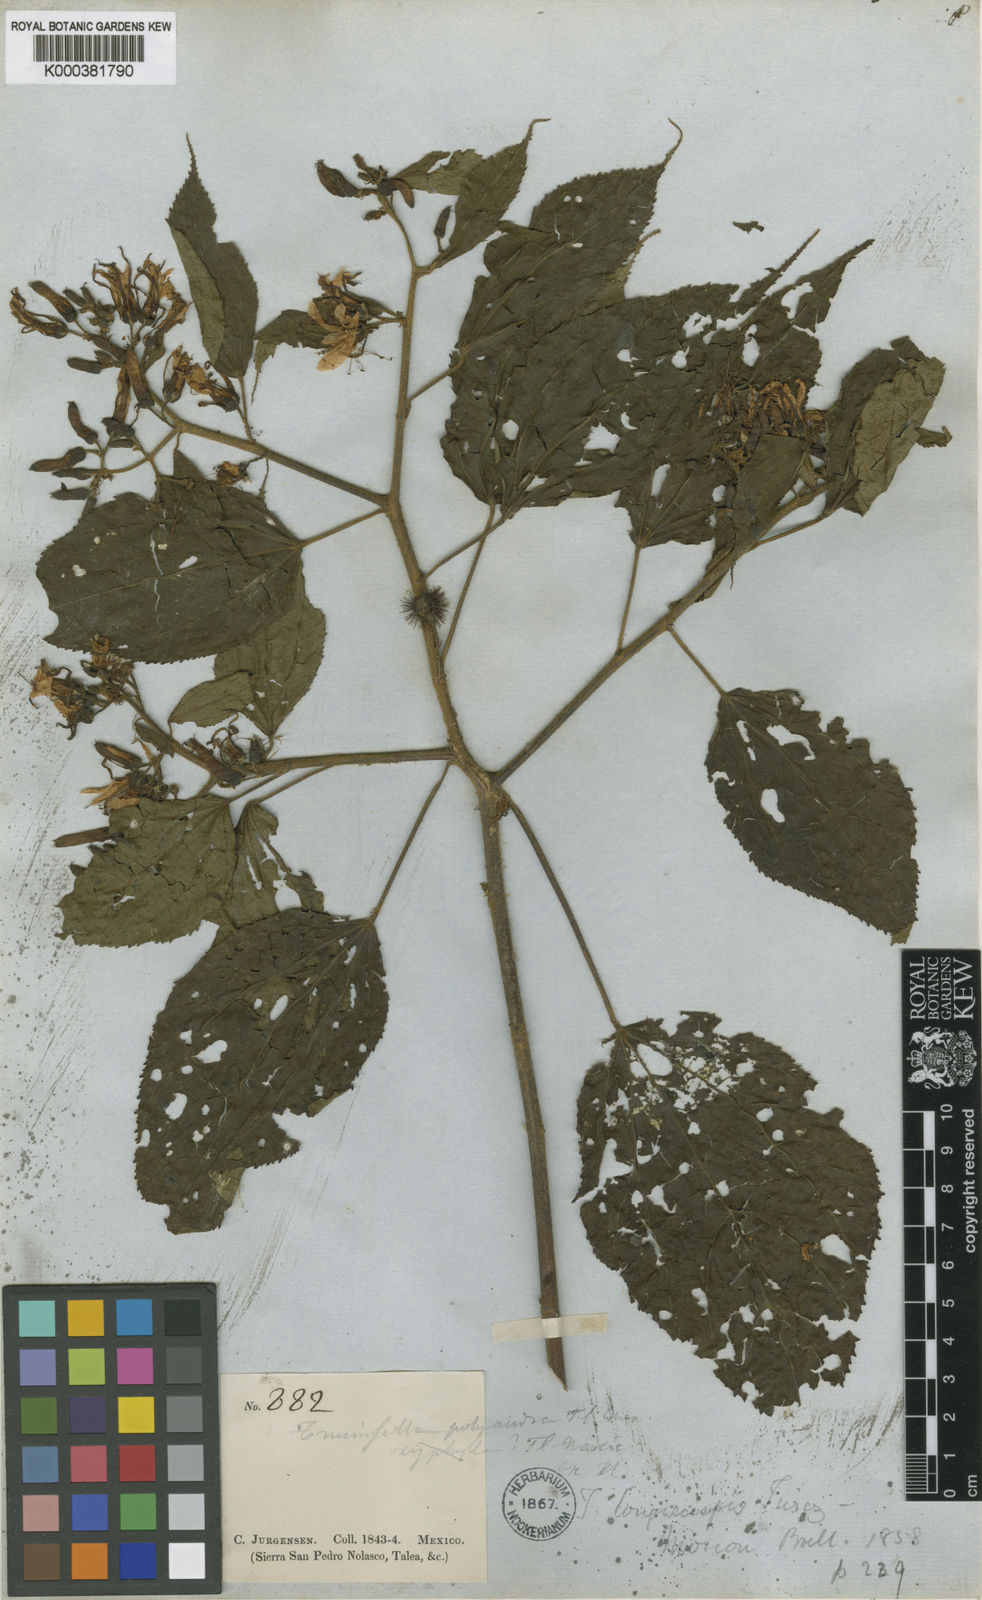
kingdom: Plantae
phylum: Tracheophyta
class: Magnoliopsida
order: Malvales
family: Malvaceae
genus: Triumfetta
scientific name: Triumfetta grandiflora
